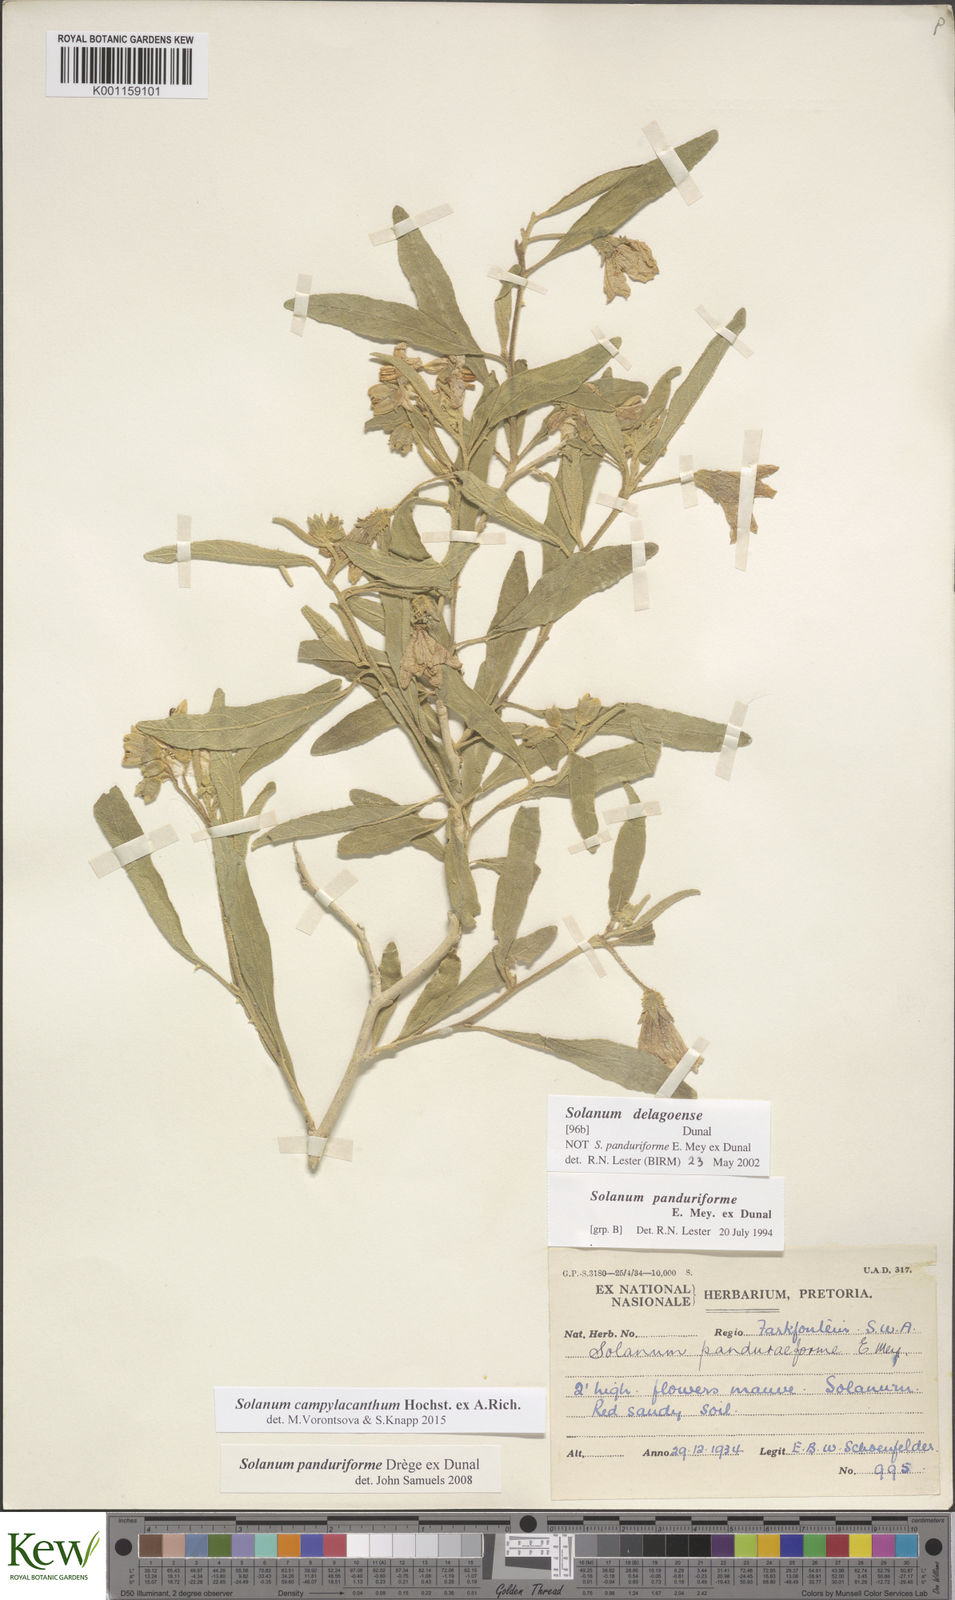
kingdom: Plantae
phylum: Tracheophyta
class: Magnoliopsida
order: Solanales
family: Solanaceae
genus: Solanum
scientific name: Solanum campylacanthum
